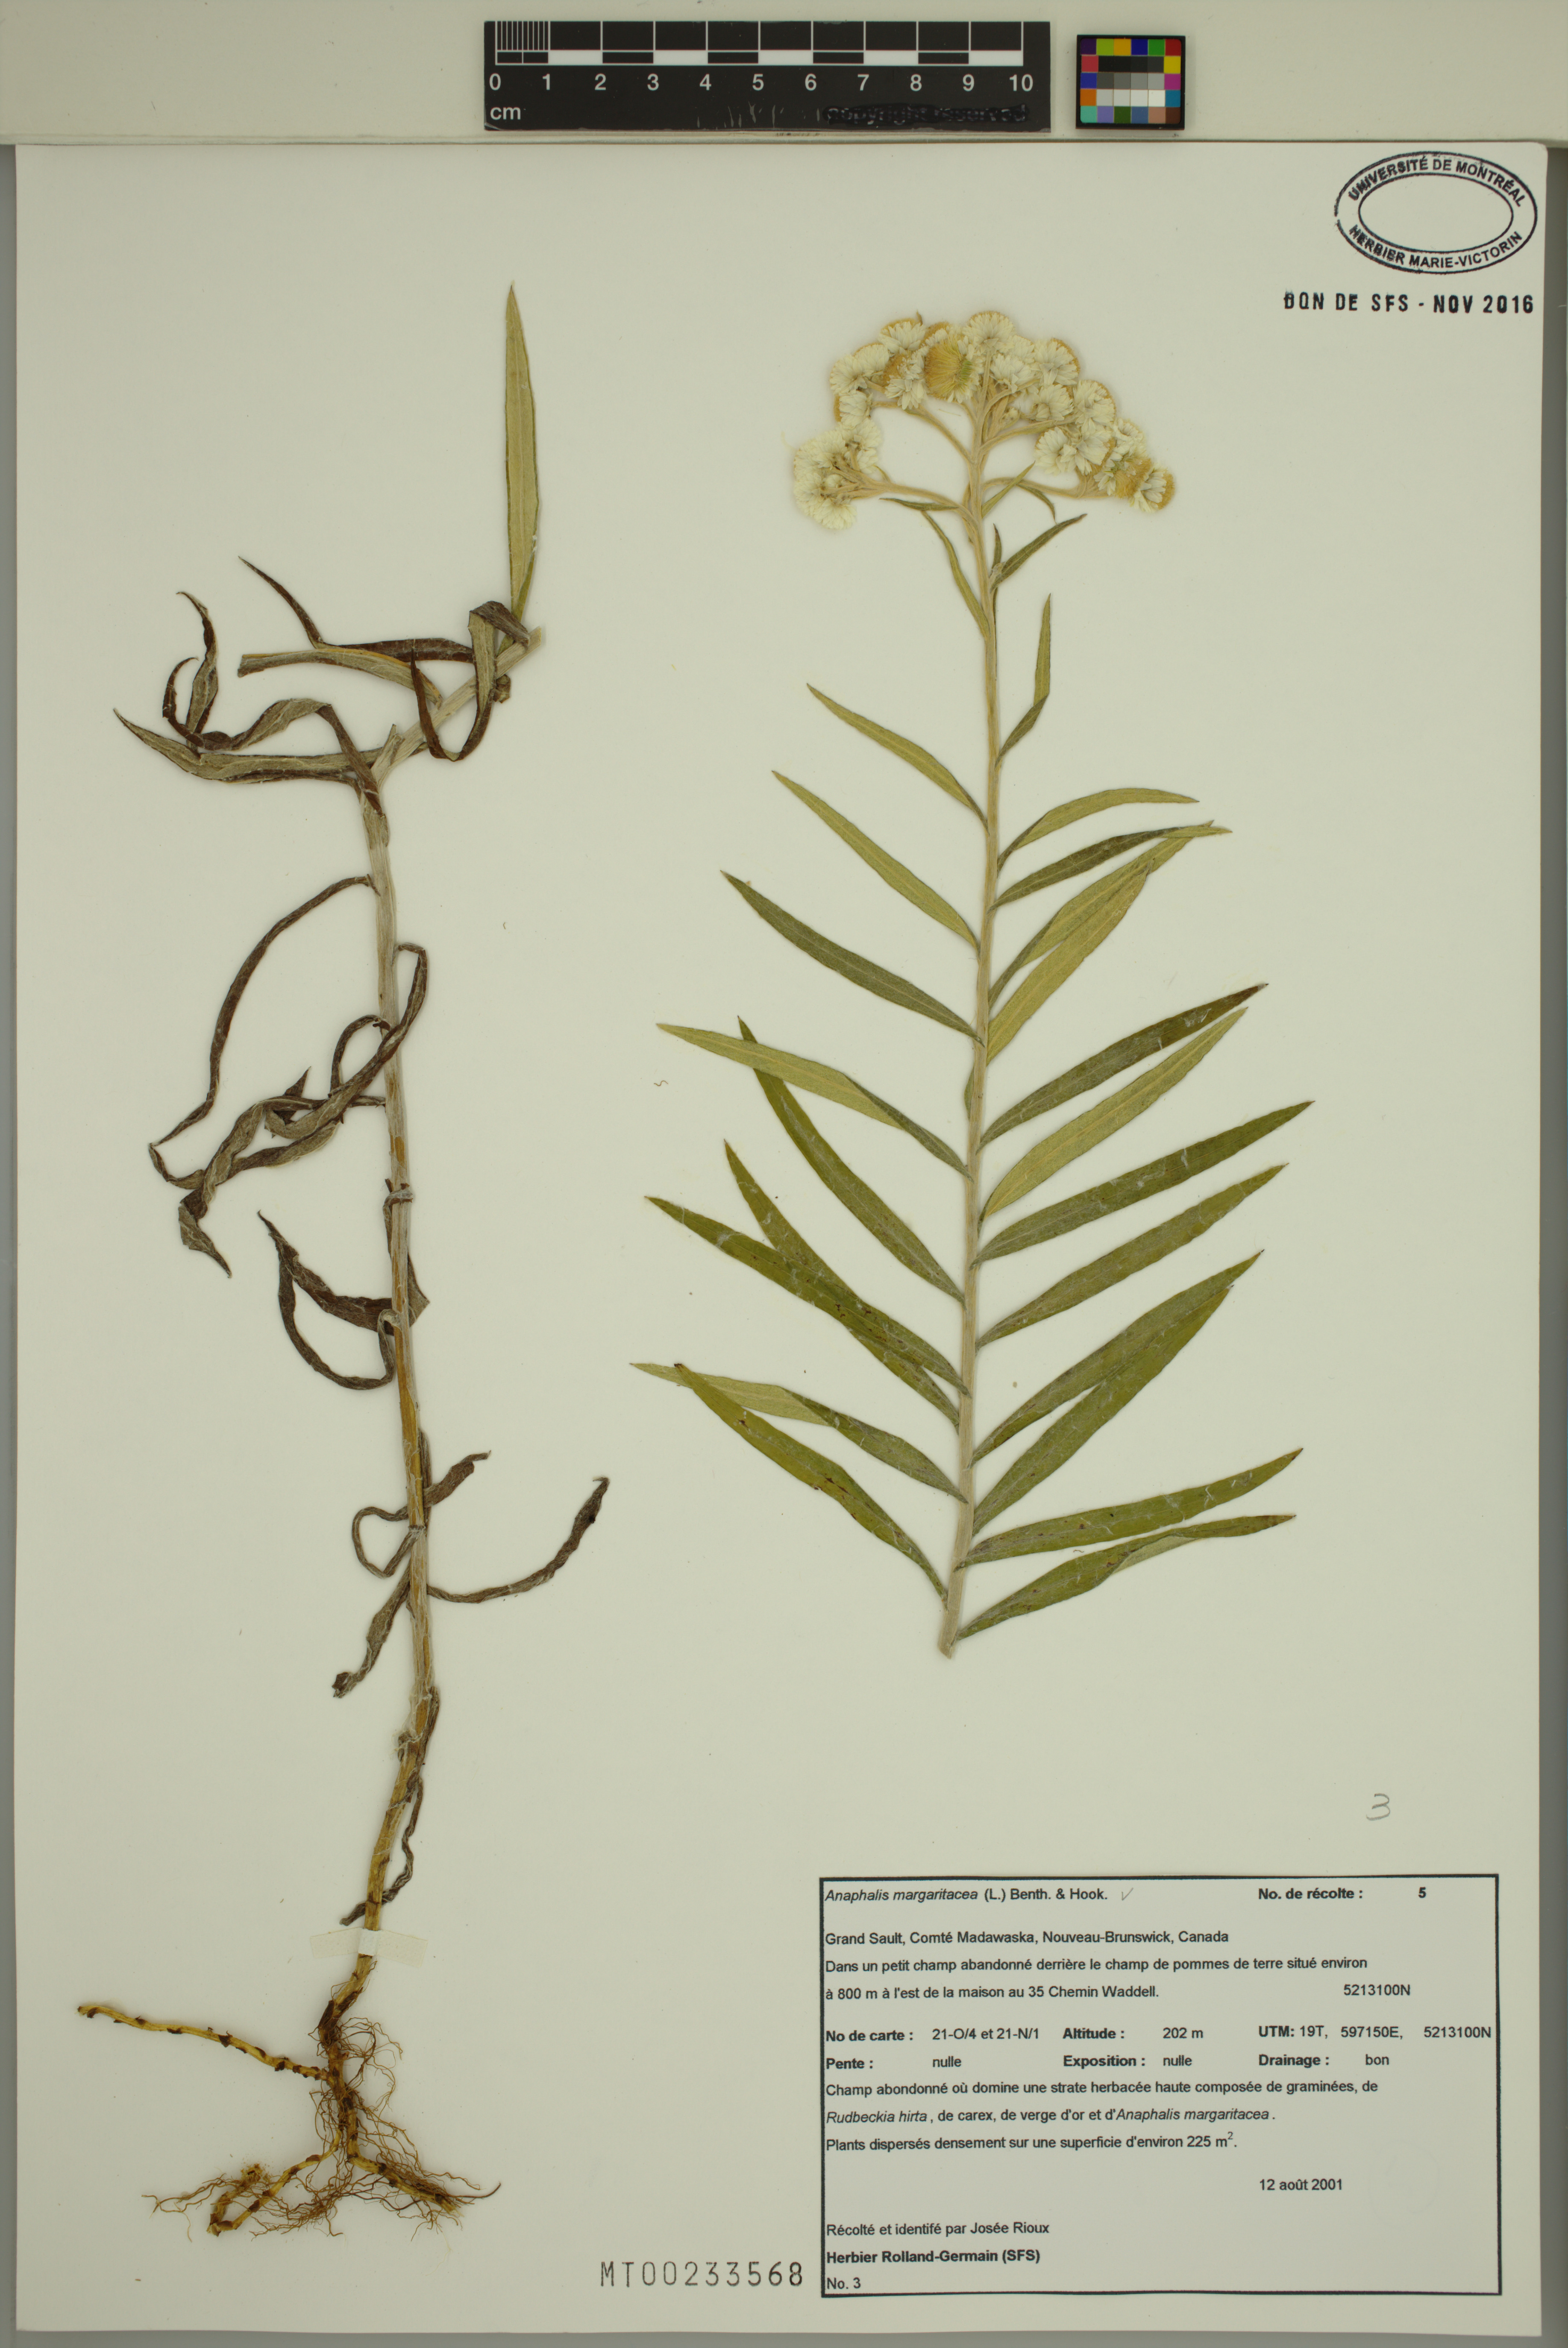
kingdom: Plantae
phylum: Tracheophyta
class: Magnoliopsida
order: Asterales
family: Asteraceae
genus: Anaphalis
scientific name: Anaphalis margaritacea
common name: Pearly everlasting
